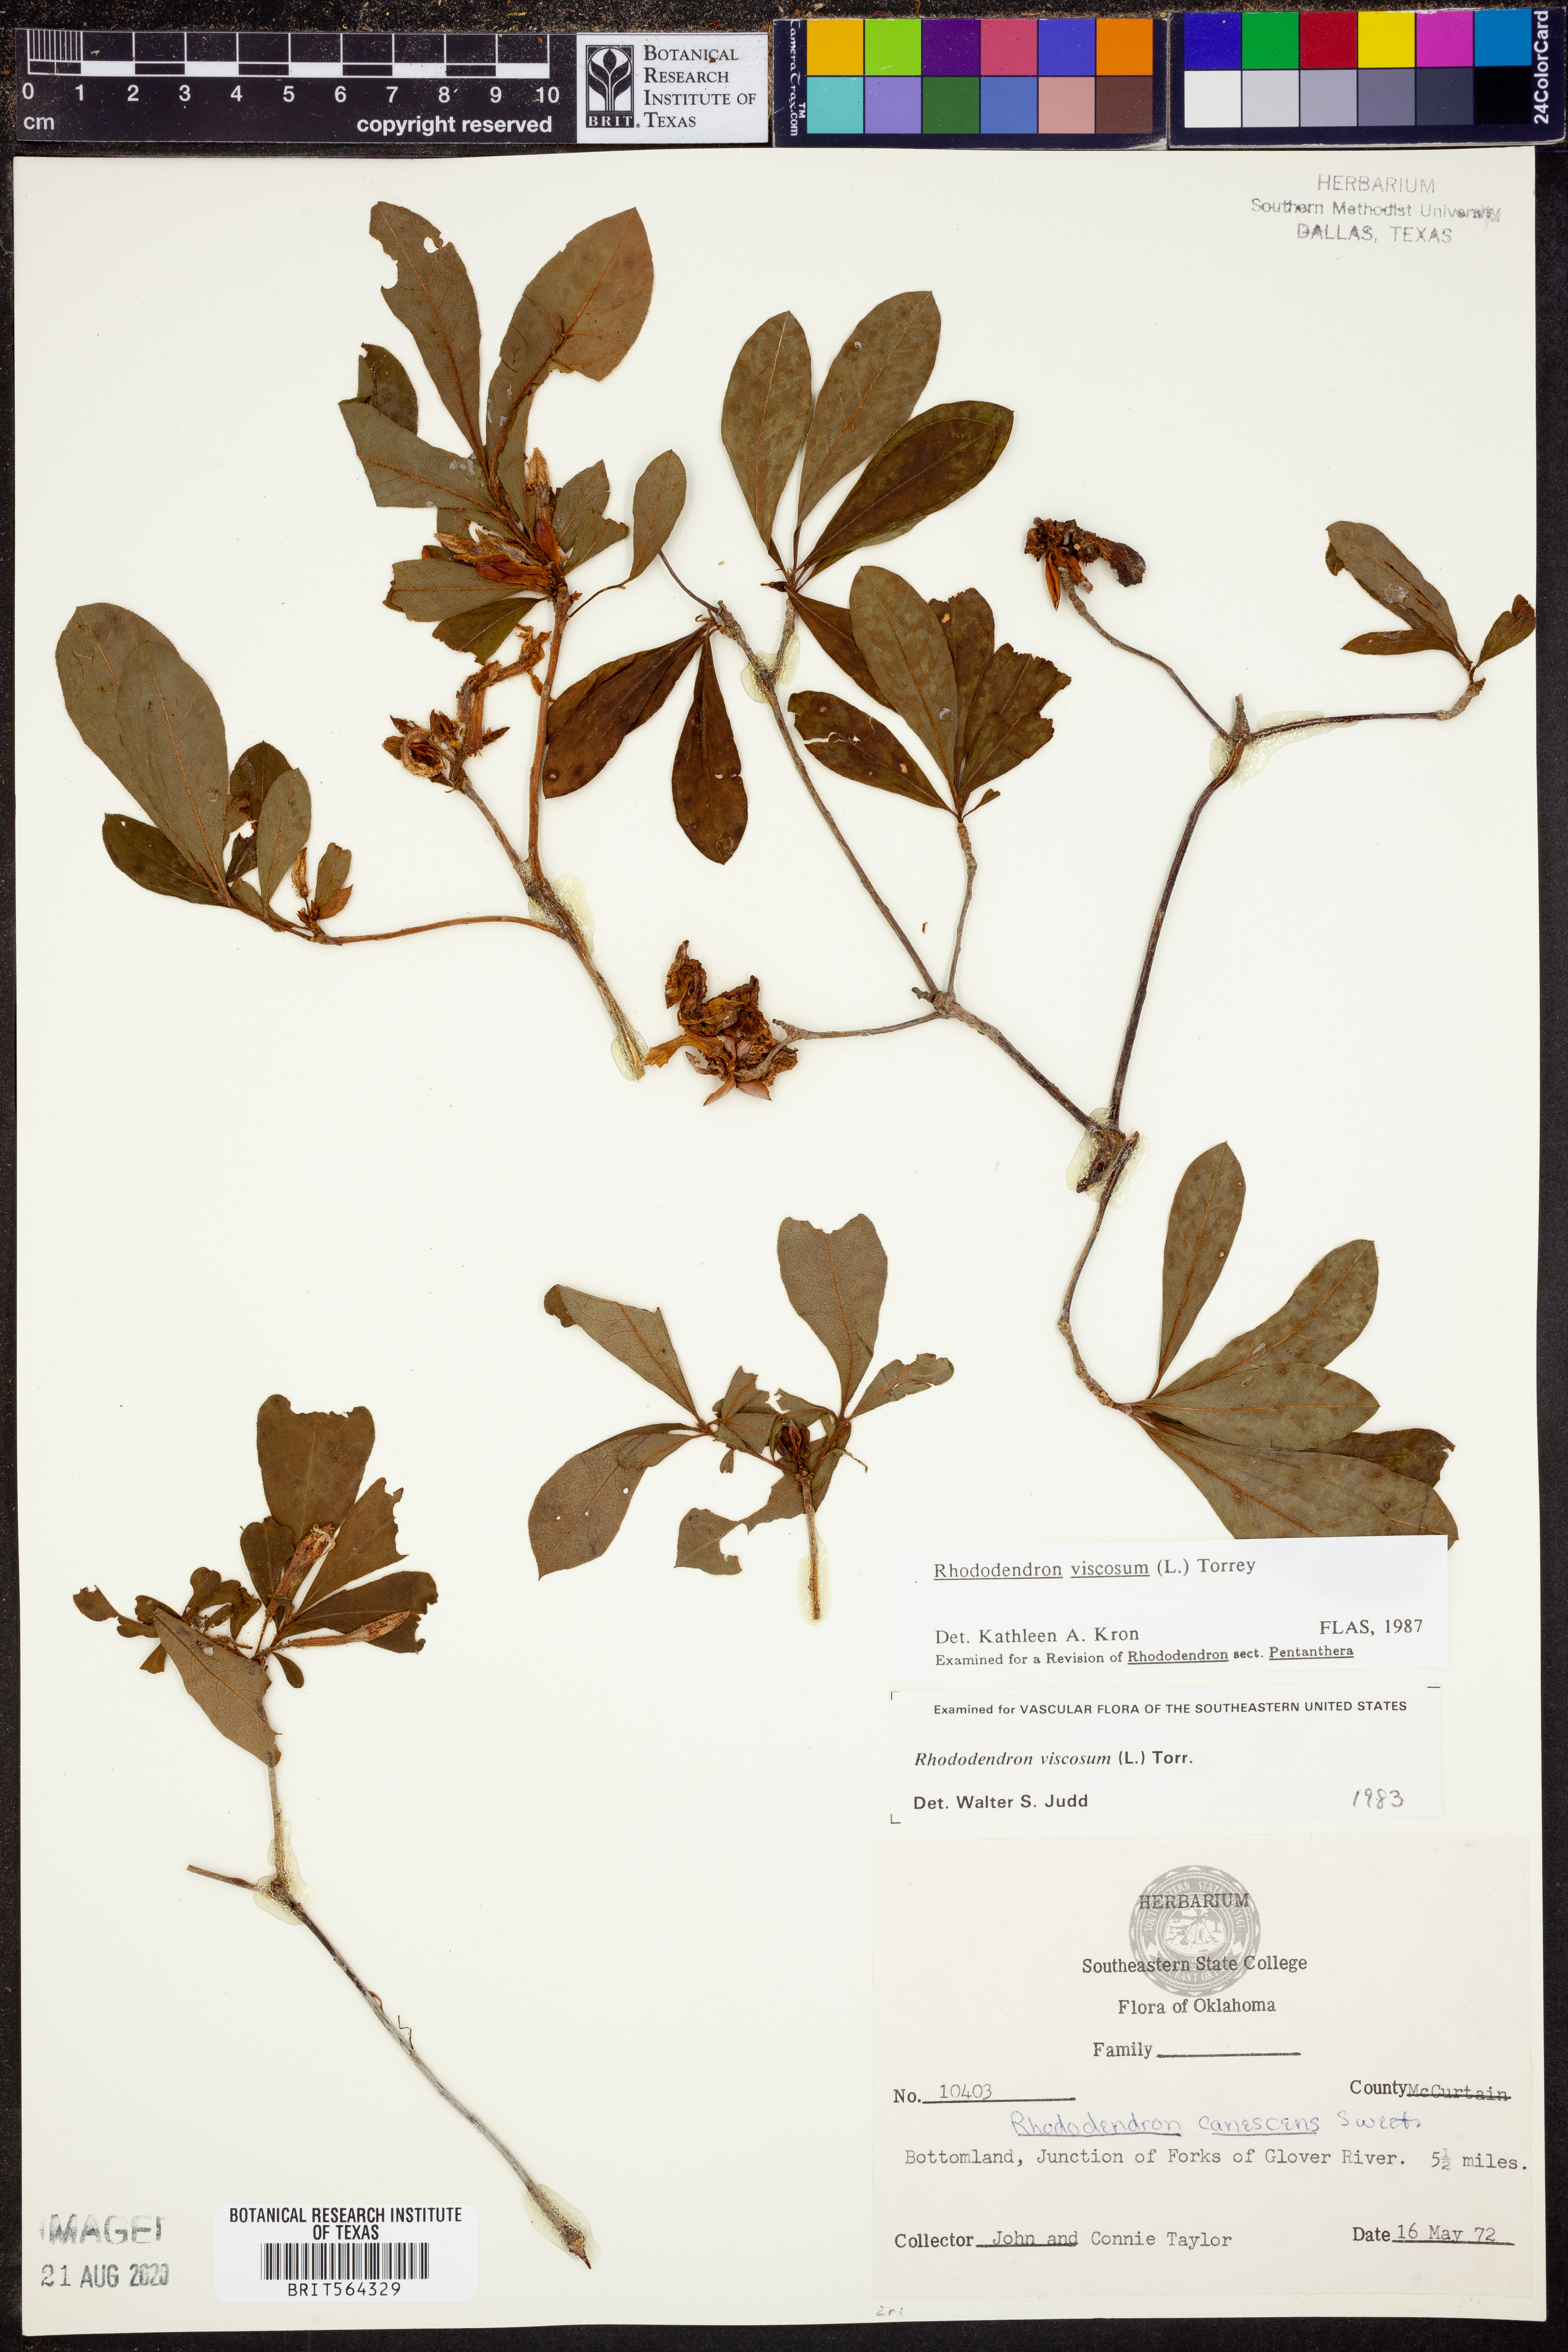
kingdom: Plantae
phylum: Tracheophyta
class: Magnoliopsida
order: Ericales
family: Ericaceae
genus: Rhododendron
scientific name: Rhododendron viscosum
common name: Clammy azalea
